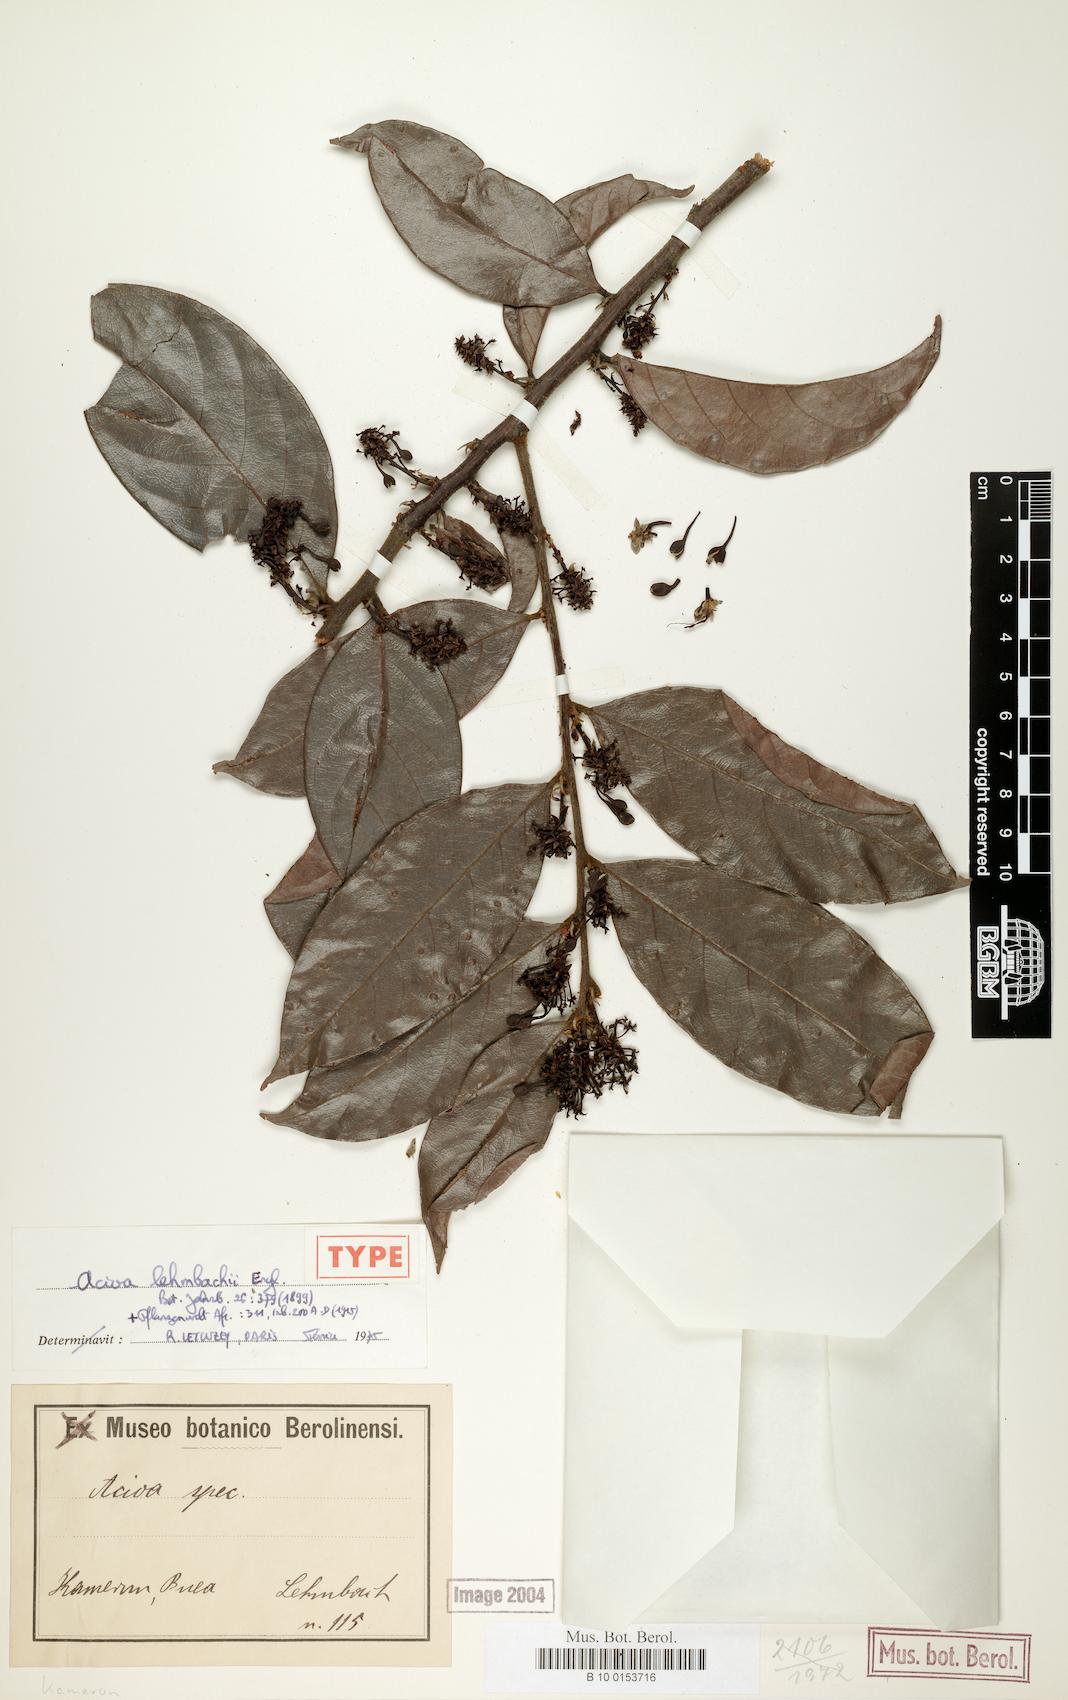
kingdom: Plantae
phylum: Tracheophyta
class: Magnoliopsida
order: Malpighiales
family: Chrysobalanaceae
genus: Dactyladenia
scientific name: Dactyladenia lehmbachii
